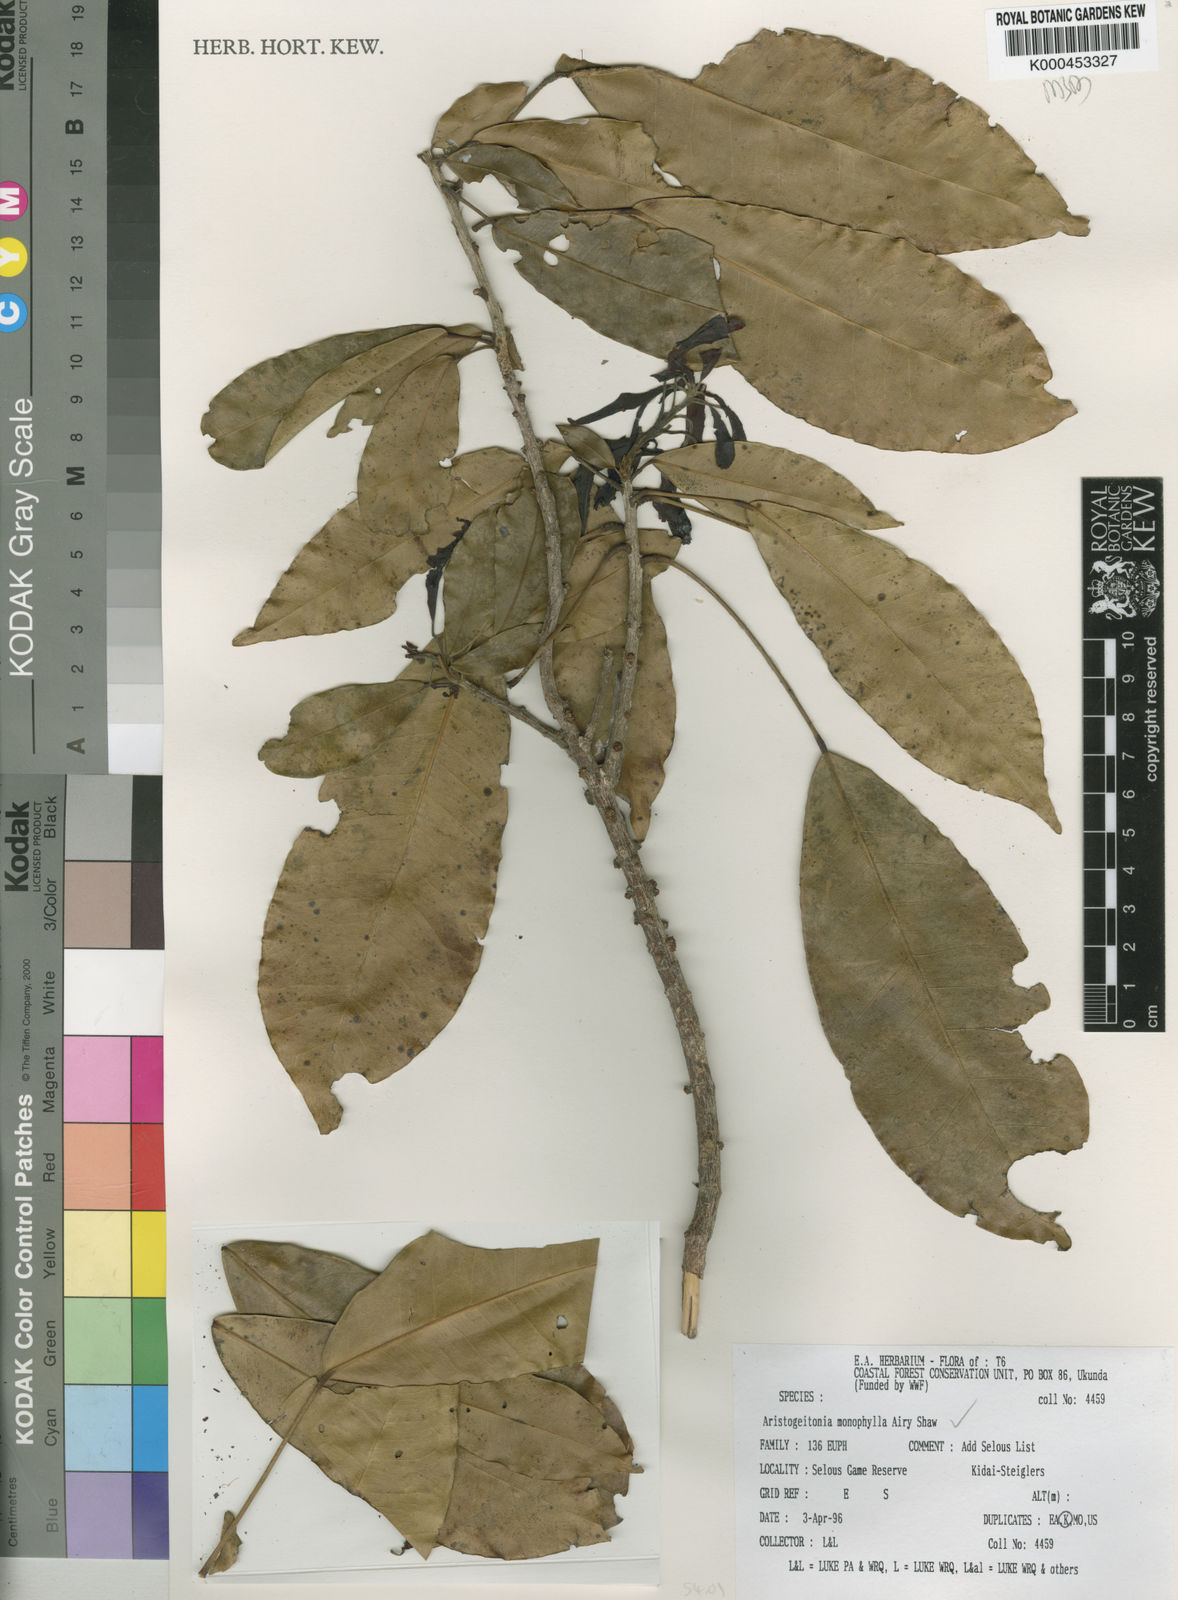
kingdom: Plantae
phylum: Tracheophyta
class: Magnoliopsida
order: Malpighiales
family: Picrodendraceae
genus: Aristogeitonia
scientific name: Aristogeitonia monophylla
